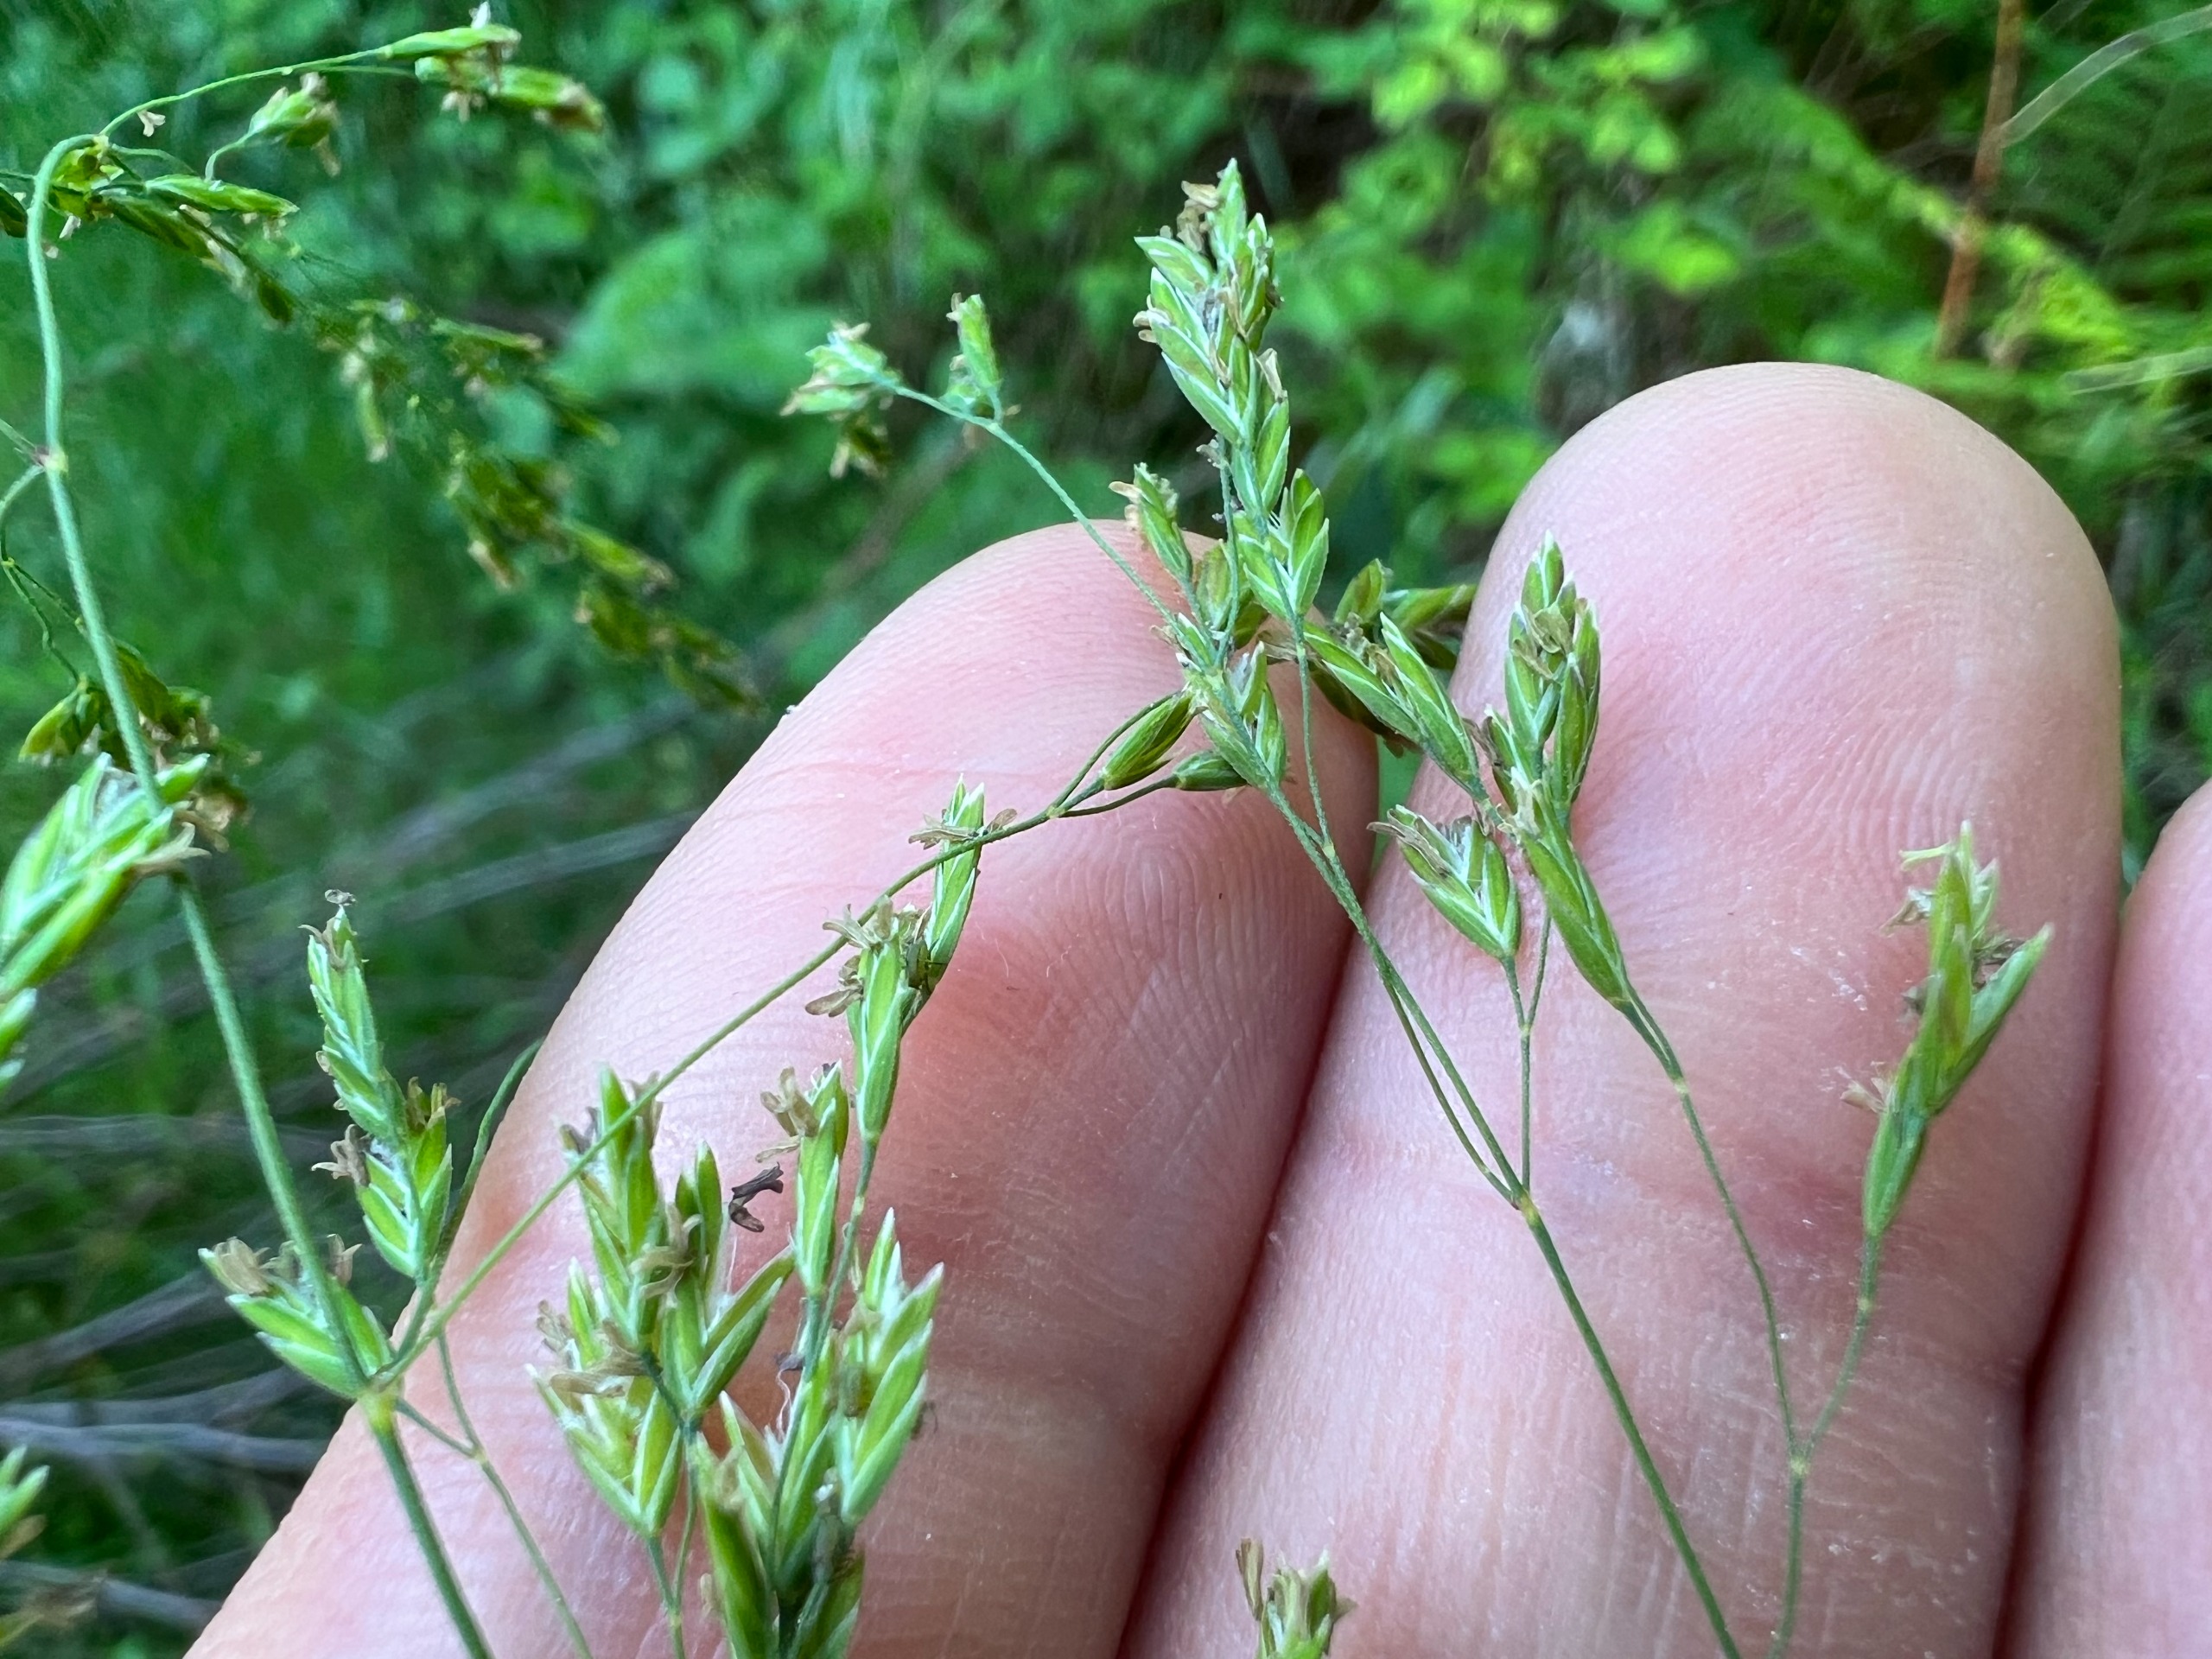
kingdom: Plantae
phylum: Tracheophyta
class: Liliopsida
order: Poales
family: Poaceae
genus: Poa
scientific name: Poa remota
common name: Kæmpe-rapgræs
